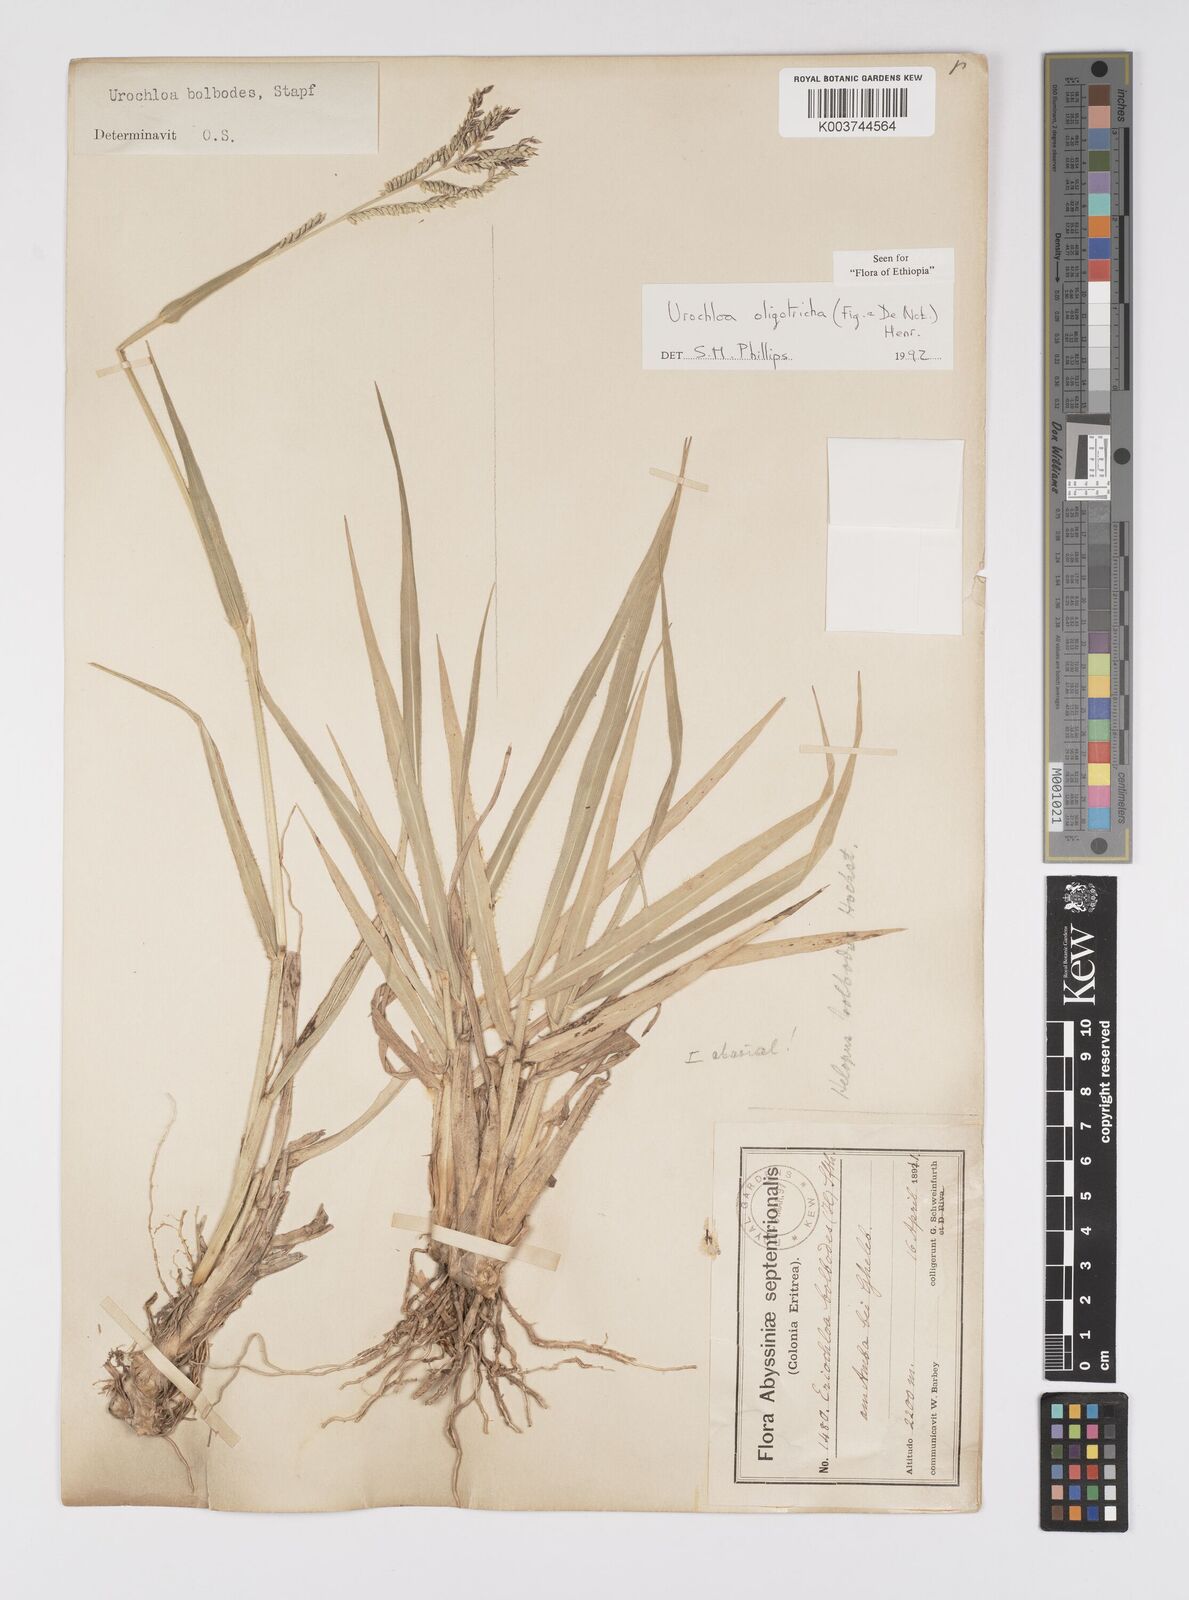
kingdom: Plantae
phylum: Tracheophyta
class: Liliopsida
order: Poales
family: Poaceae
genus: Urochloa
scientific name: Urochloa oligotricha
